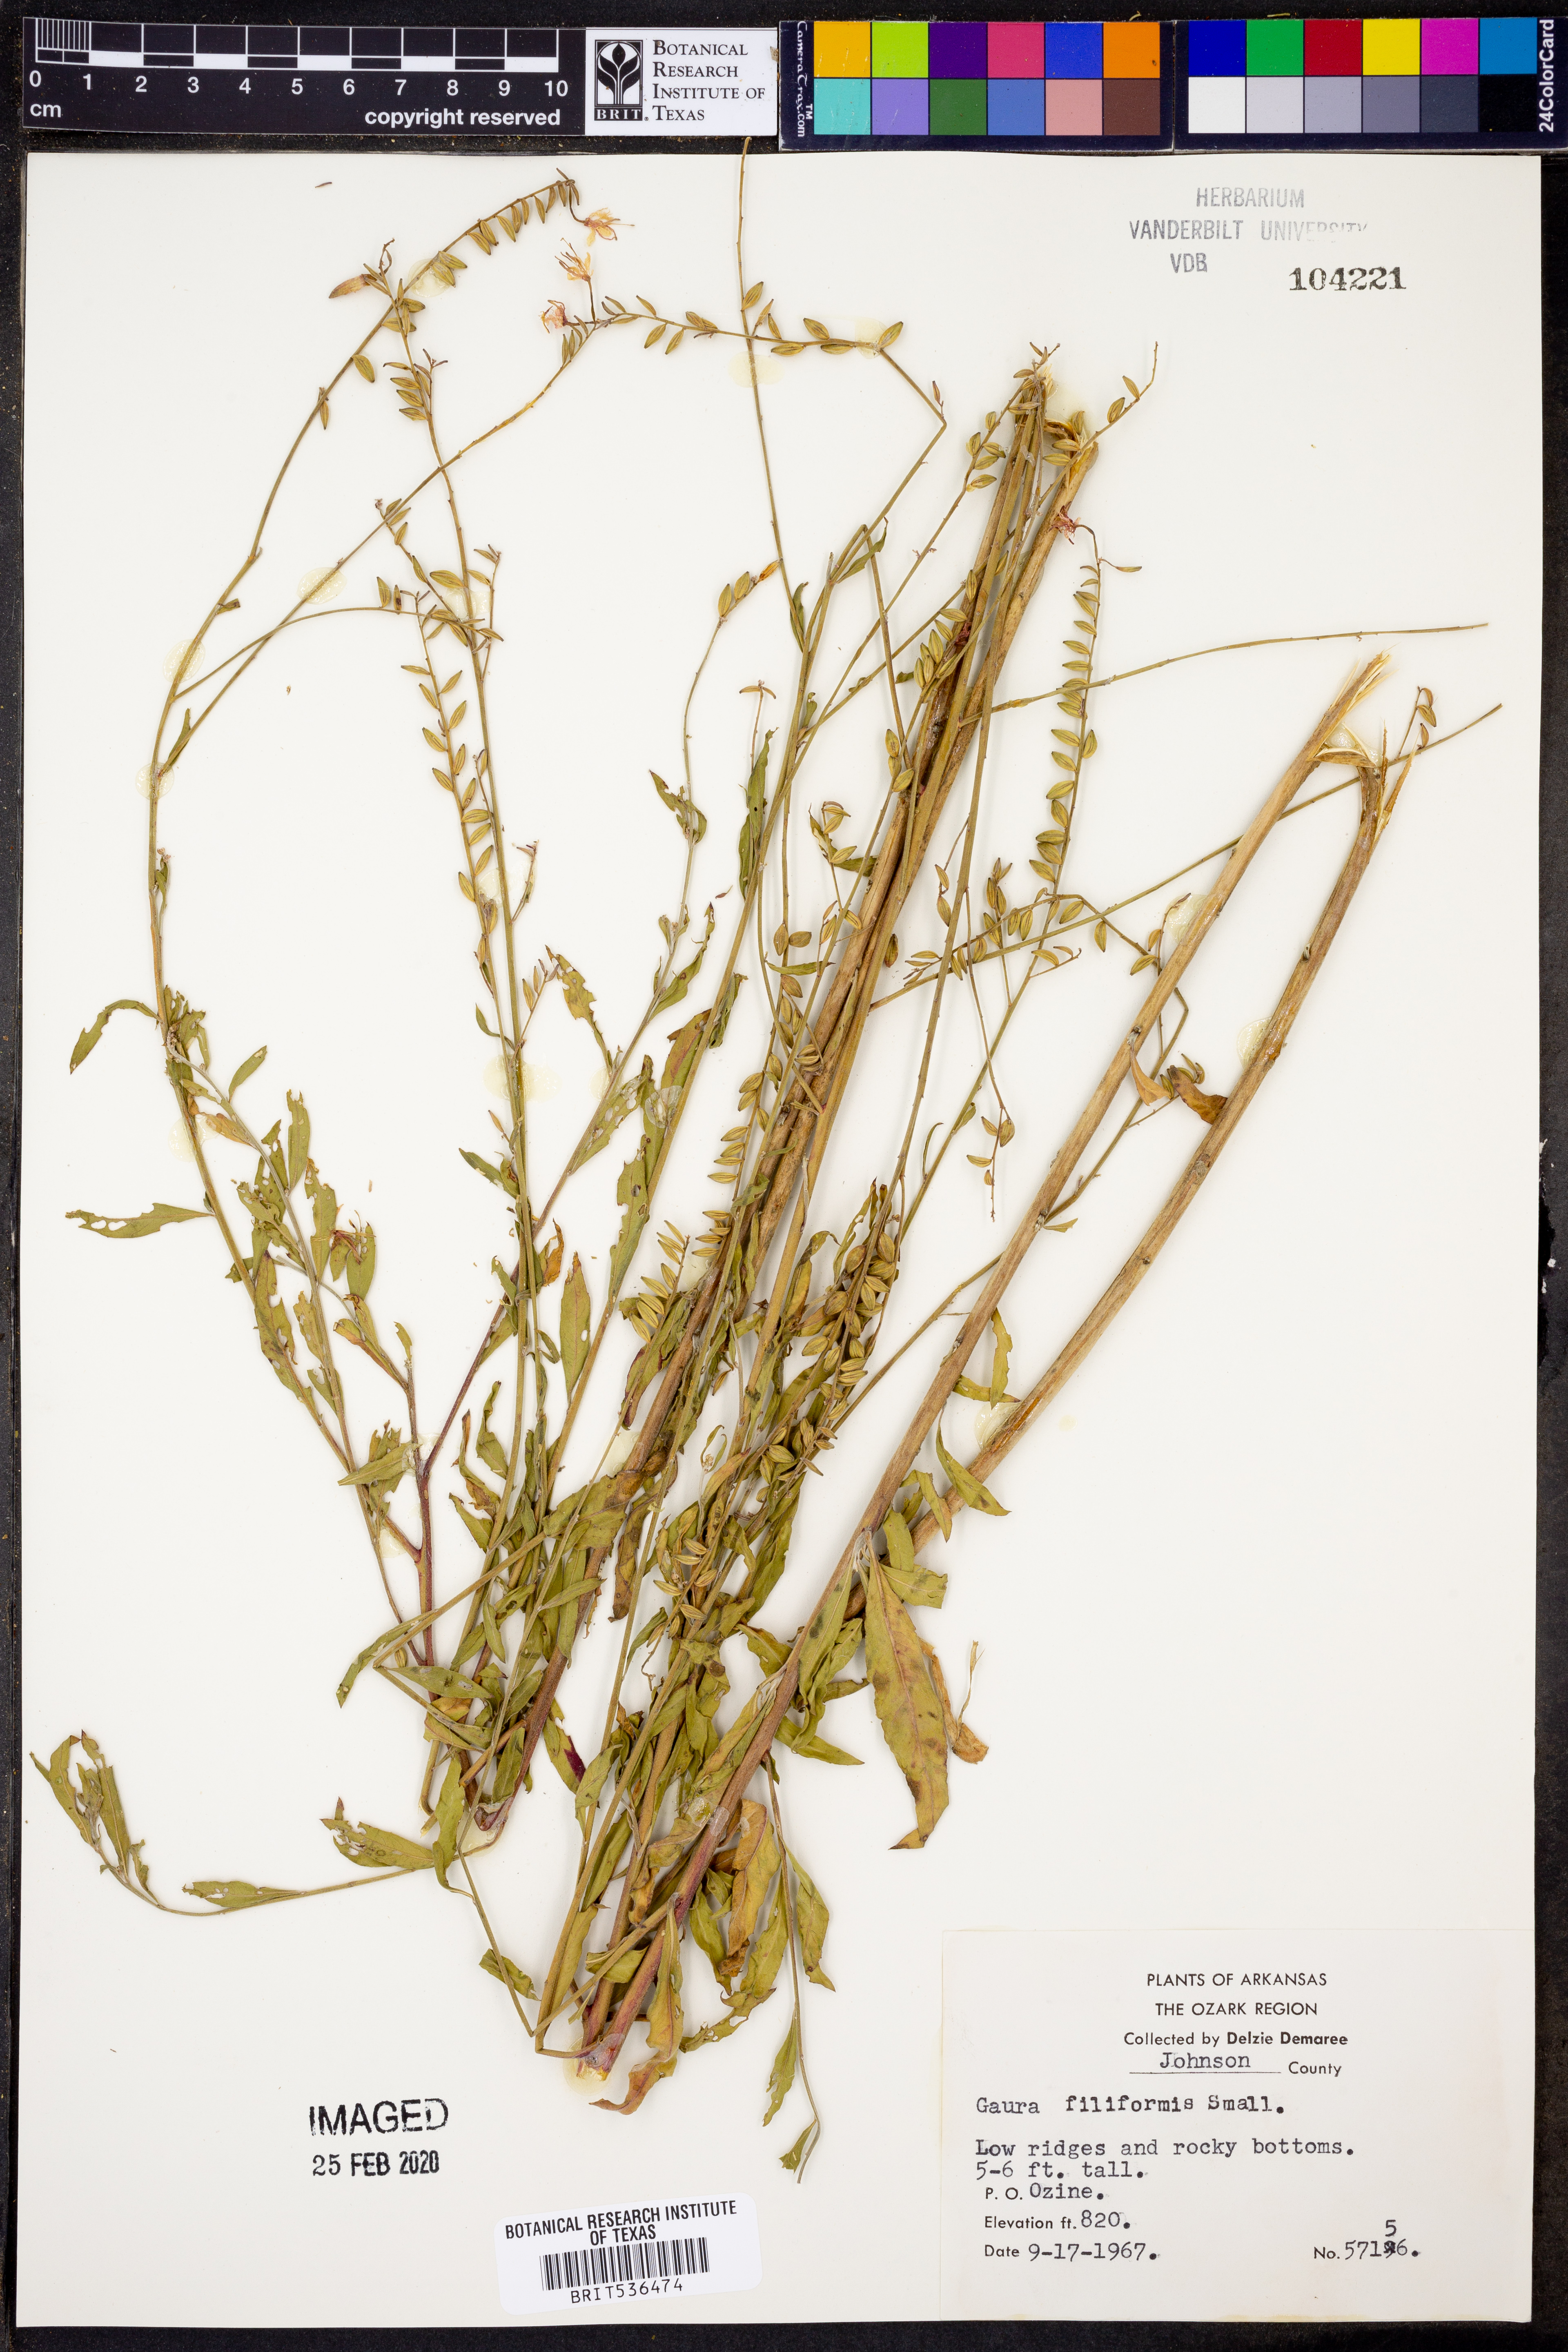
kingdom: Plantae
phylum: Tracheophyta
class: Magnoliopsida
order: Myrtales
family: Onagraceae
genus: Oenothera
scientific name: Oenothera filiformis
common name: Longflower beeblossom
